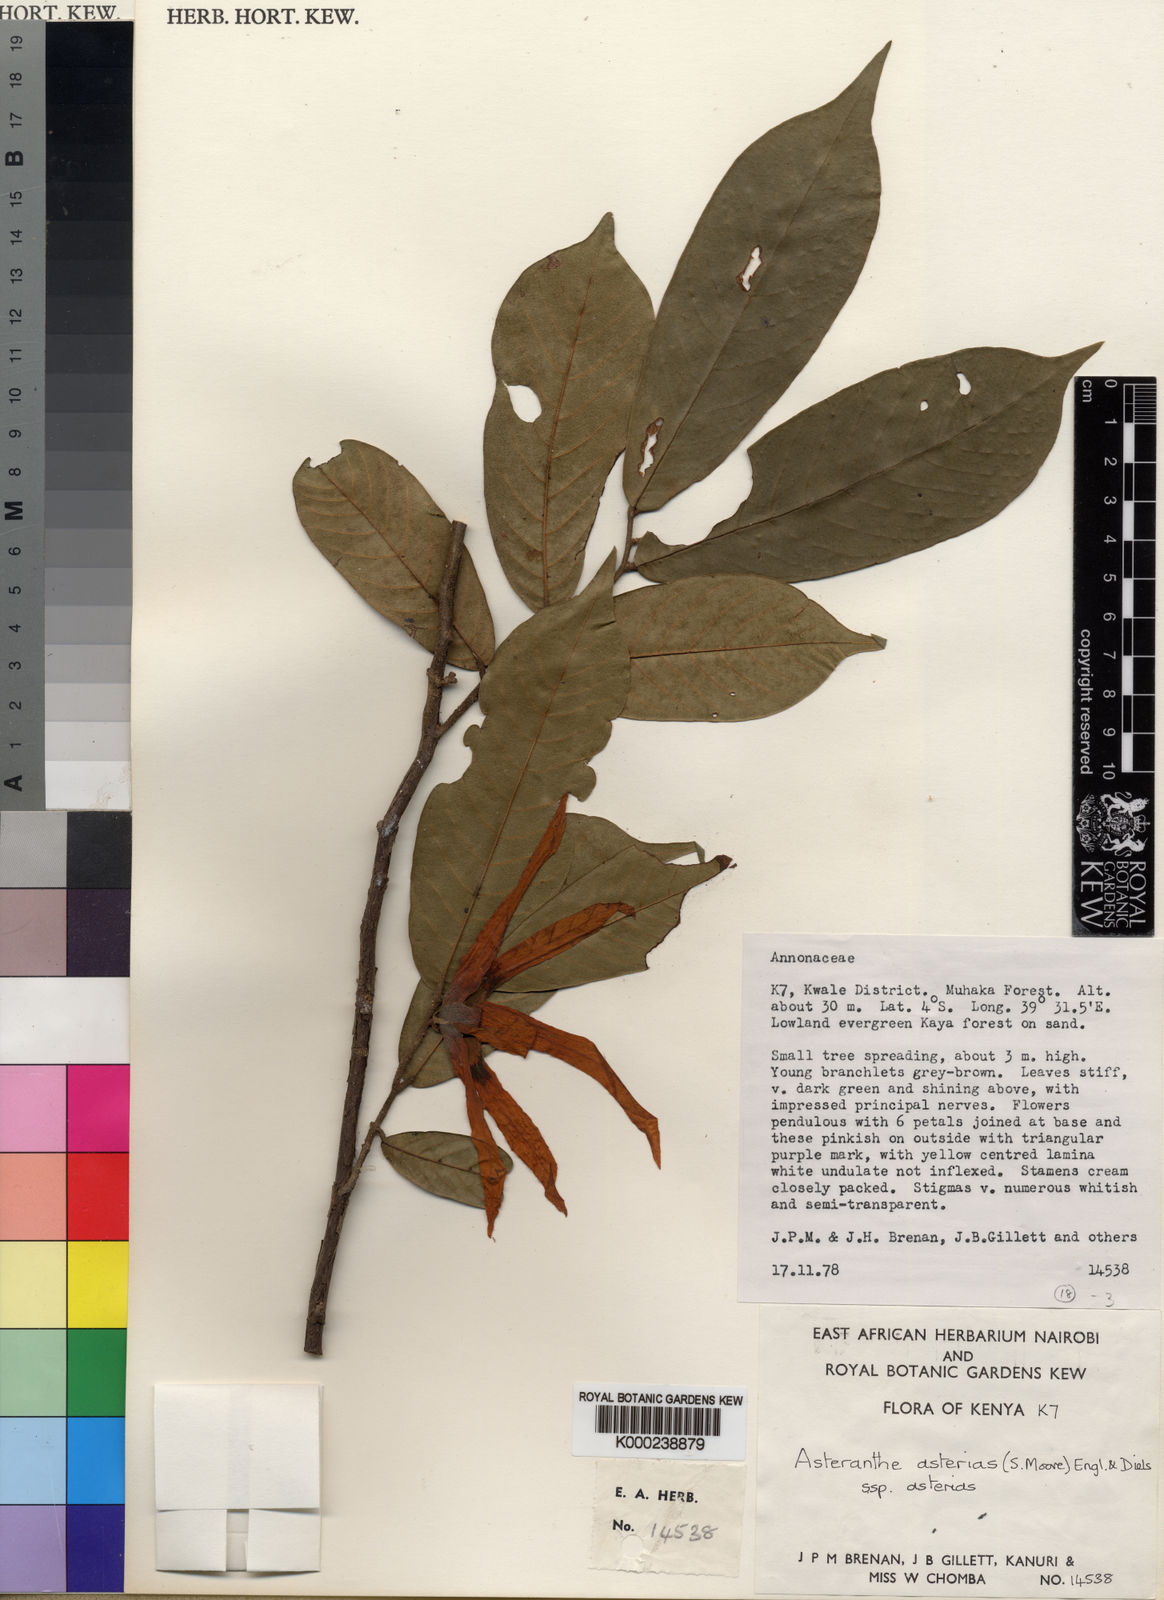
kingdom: Plantae
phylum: Tracheophyta
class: Magnoliopsida
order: Magnoliales
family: Annonaceae
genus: Asteranthe
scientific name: Asteranthe asterias
